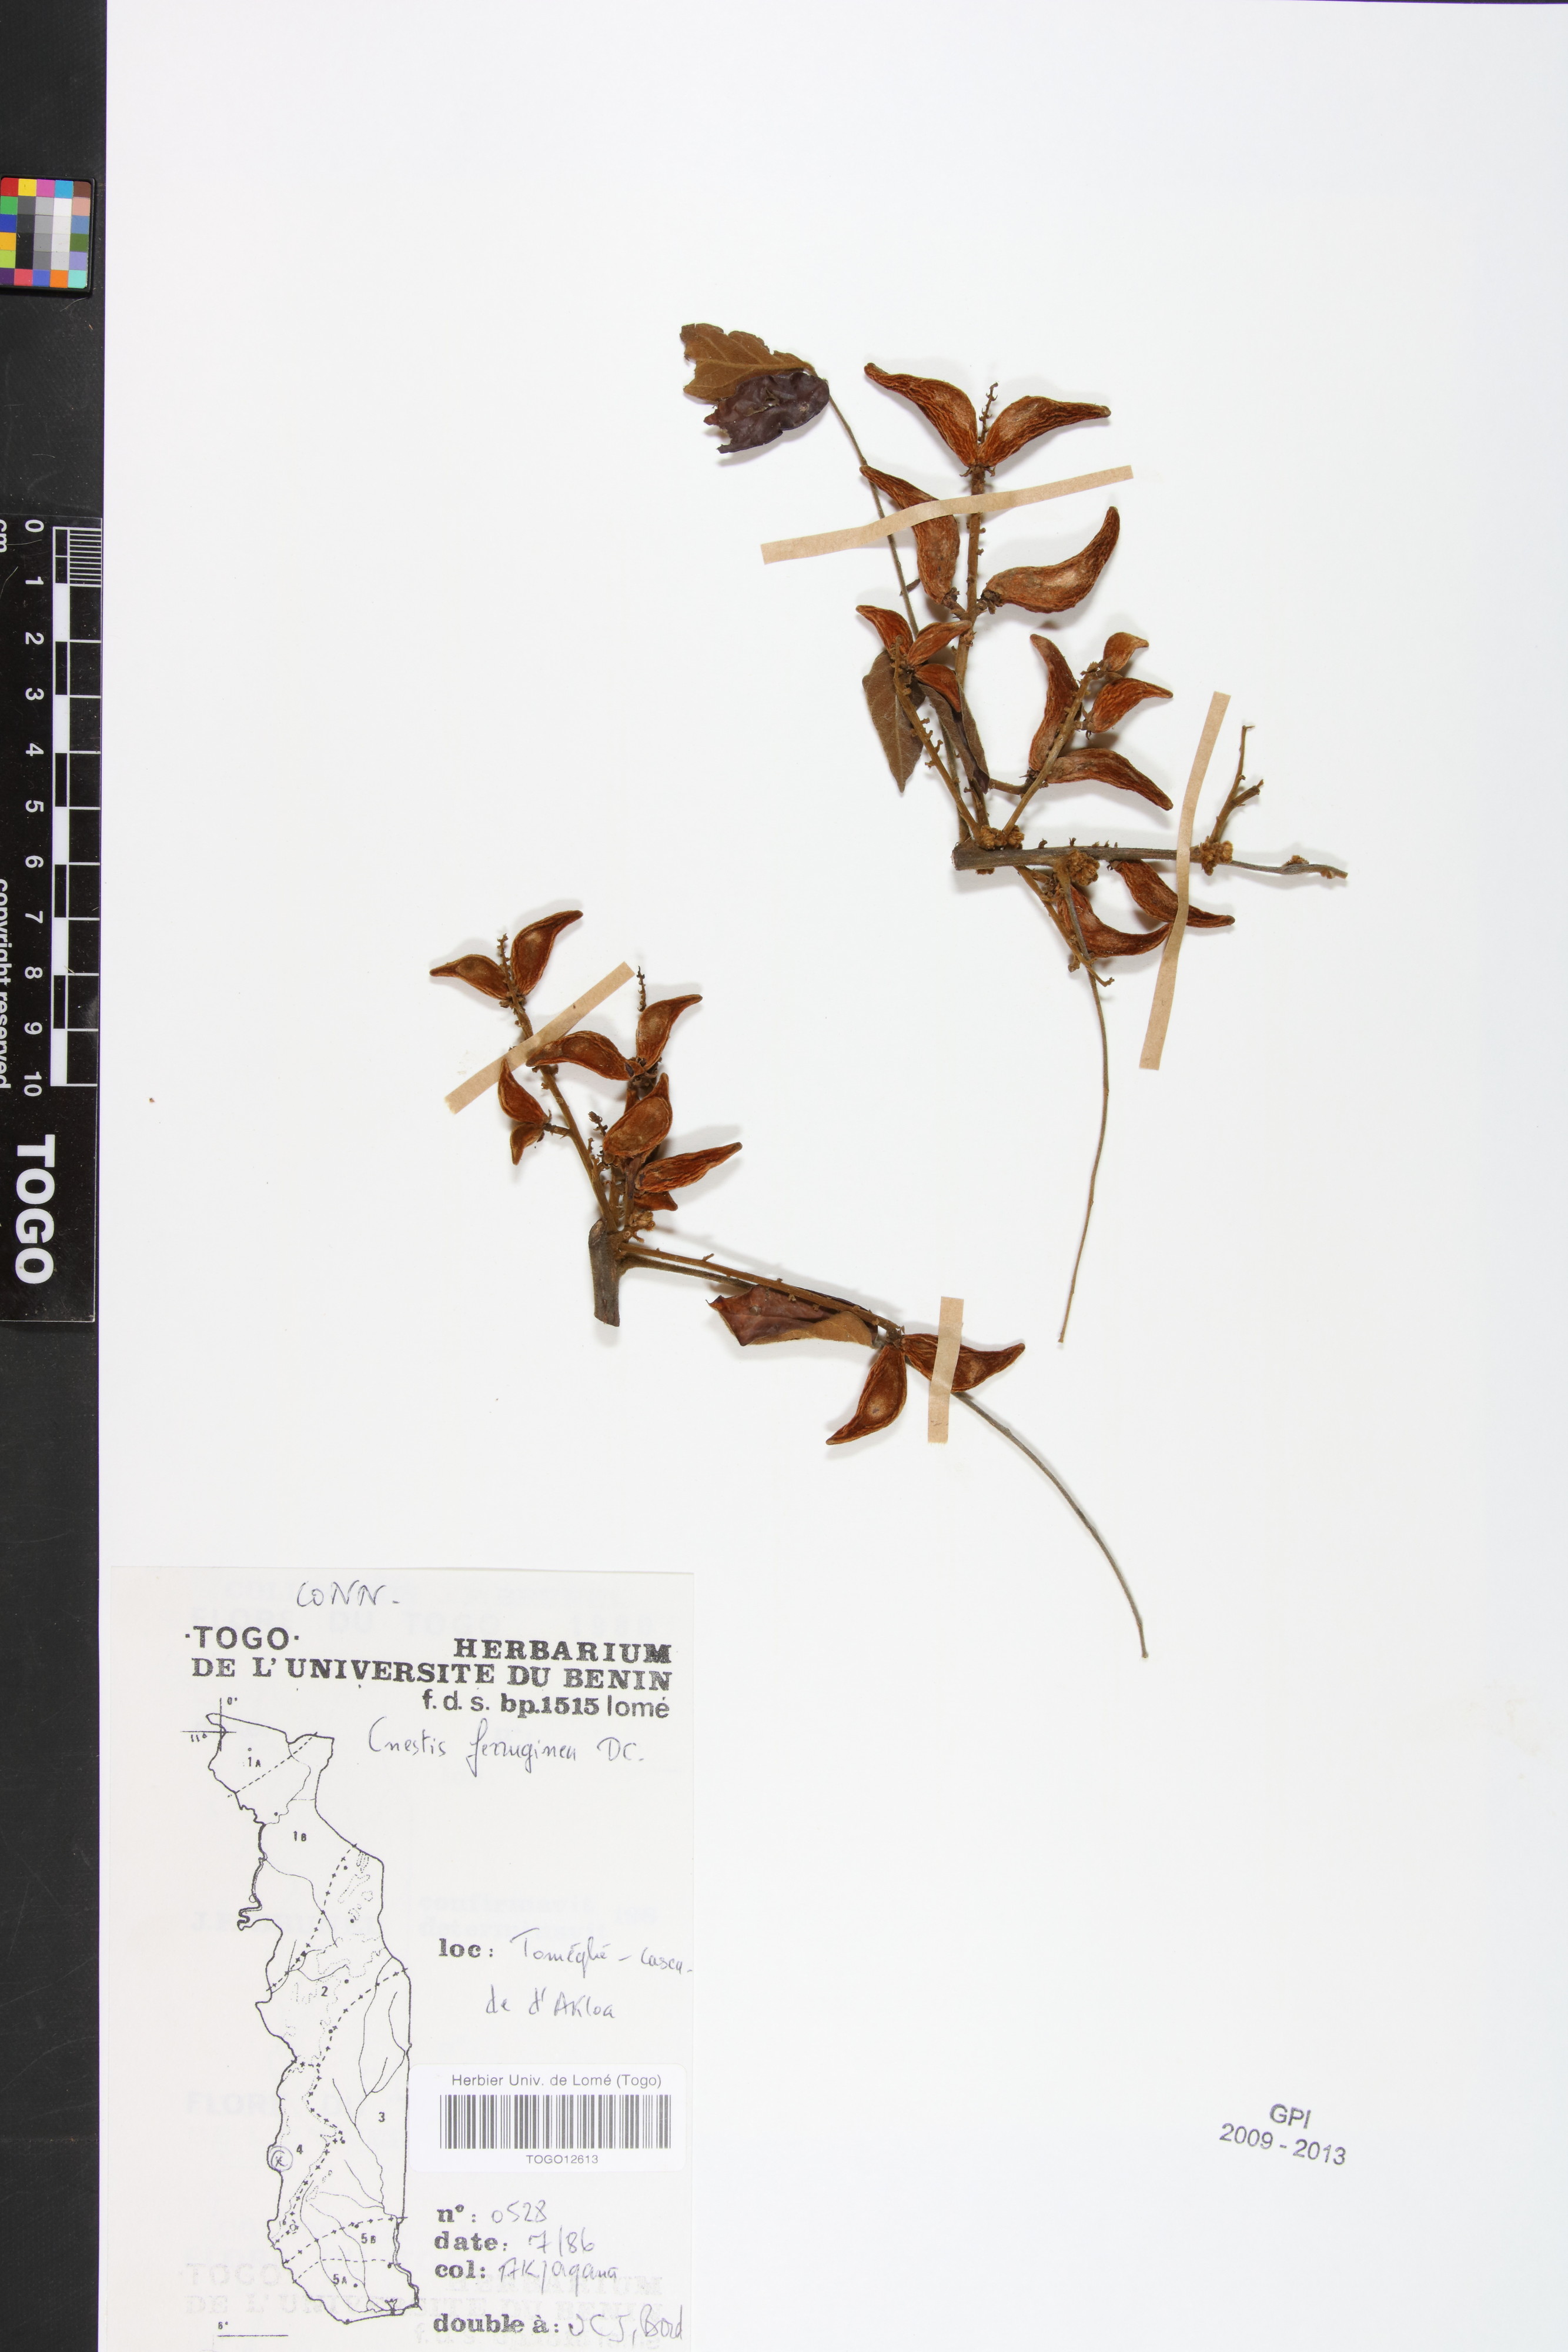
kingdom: Plantae
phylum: Tracheophyta
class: Magnoliopsida
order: Oxalidales
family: Connaraceae
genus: Cnestis
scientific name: Cnestis ferruginea
